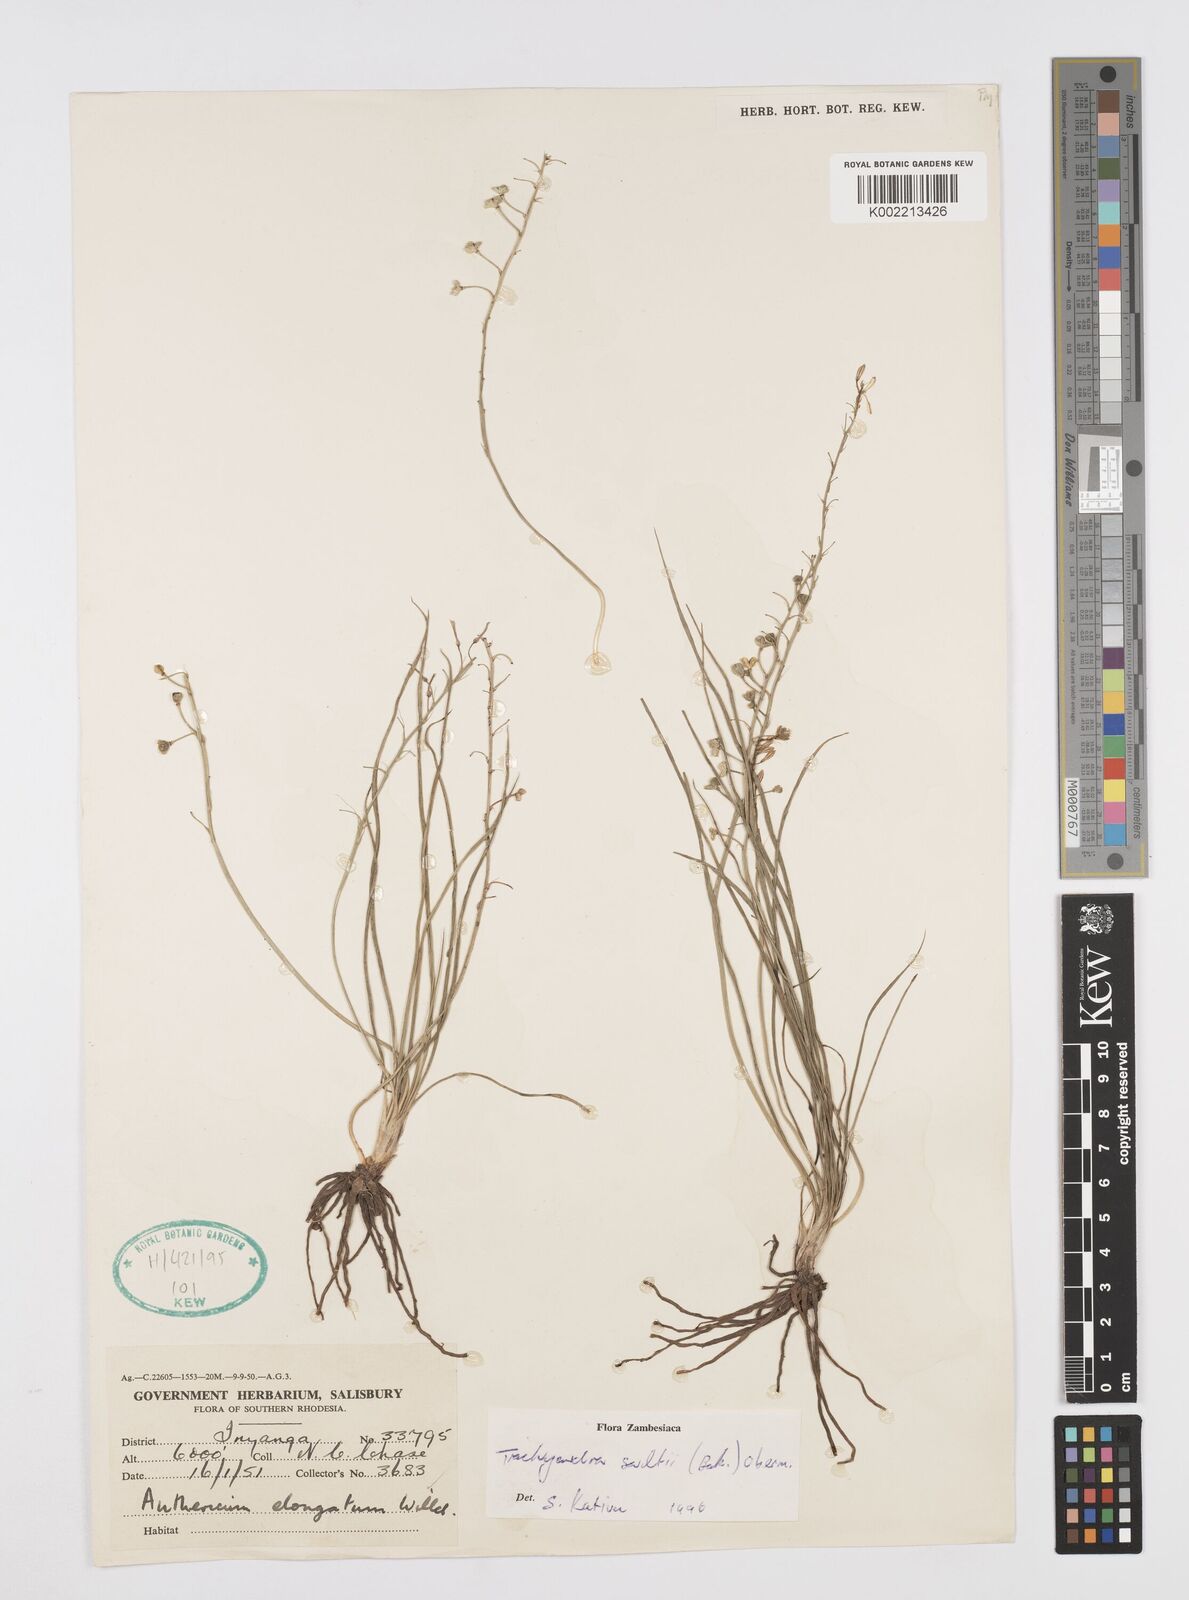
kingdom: Plantae
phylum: Tracheophyta
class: Liliopsida
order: Asparagales
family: Asphodelaceae
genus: Trachyandra
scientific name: Trachyandra saltii
